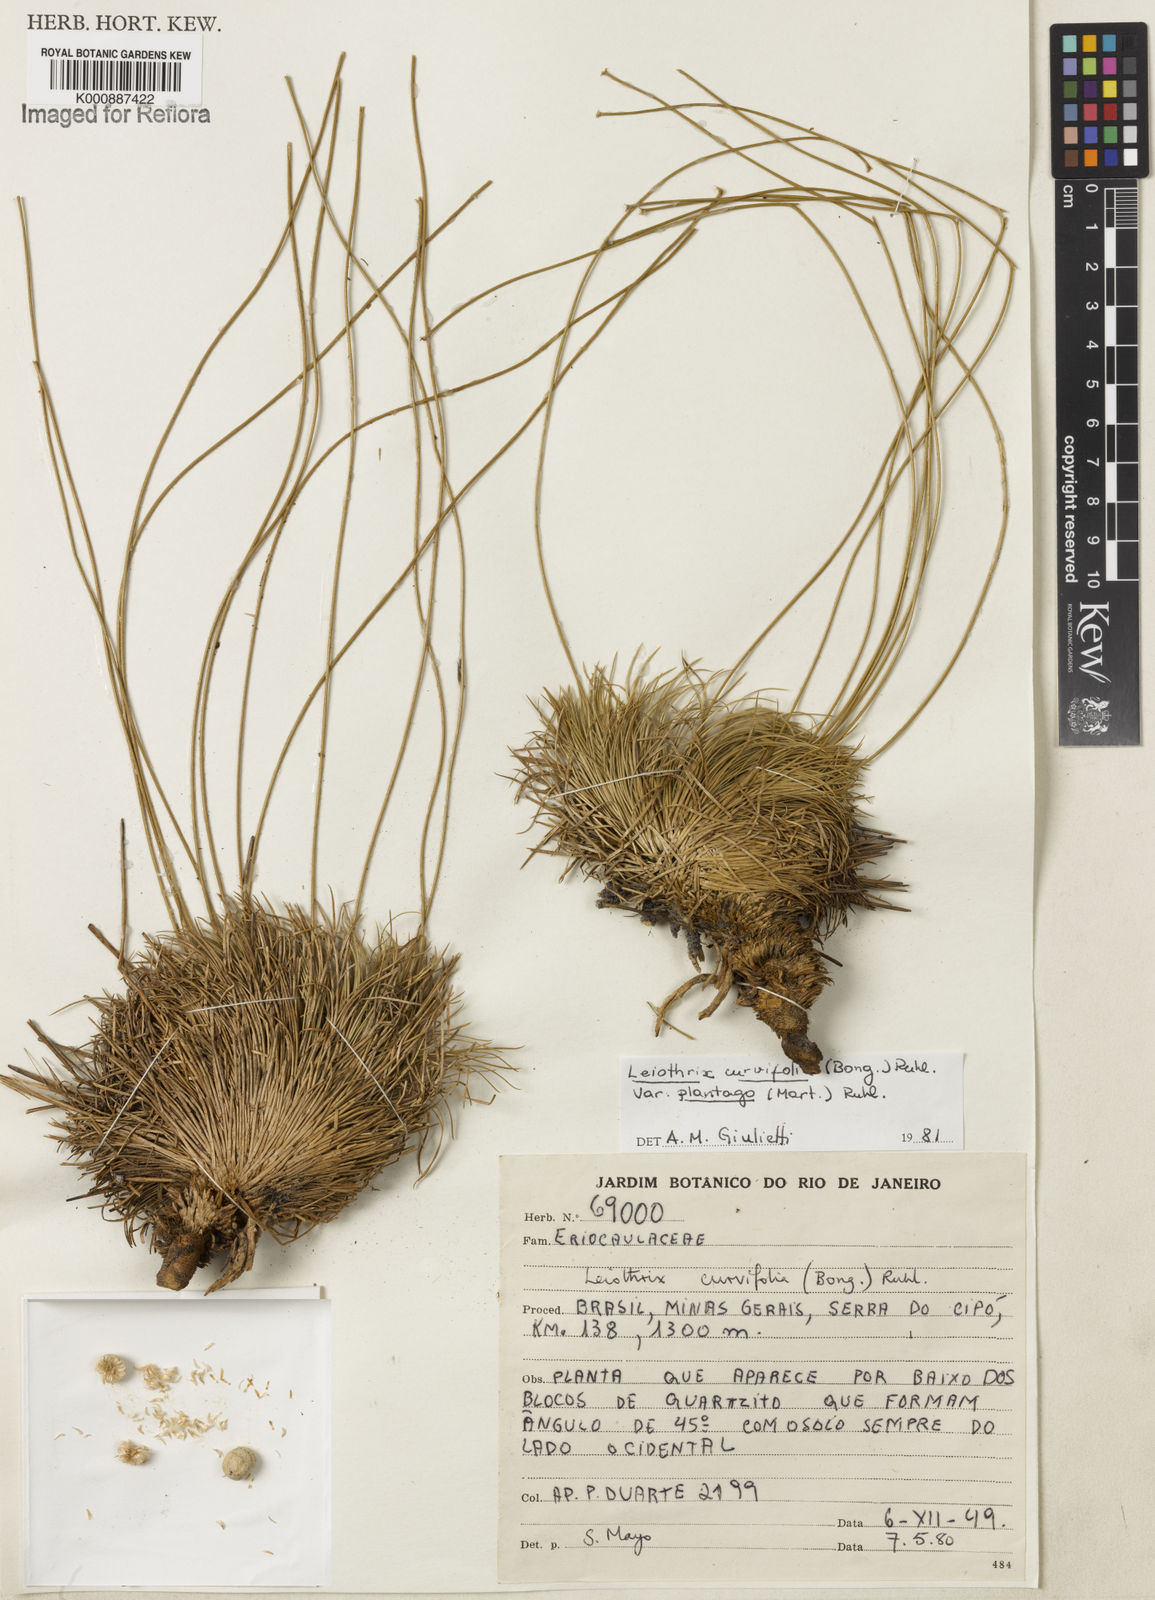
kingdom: Plantae
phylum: Tracheophyta
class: Liliopsida
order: Poales
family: Eriocaulaceae
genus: Leiothrix
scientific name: Leiothrix plantago
